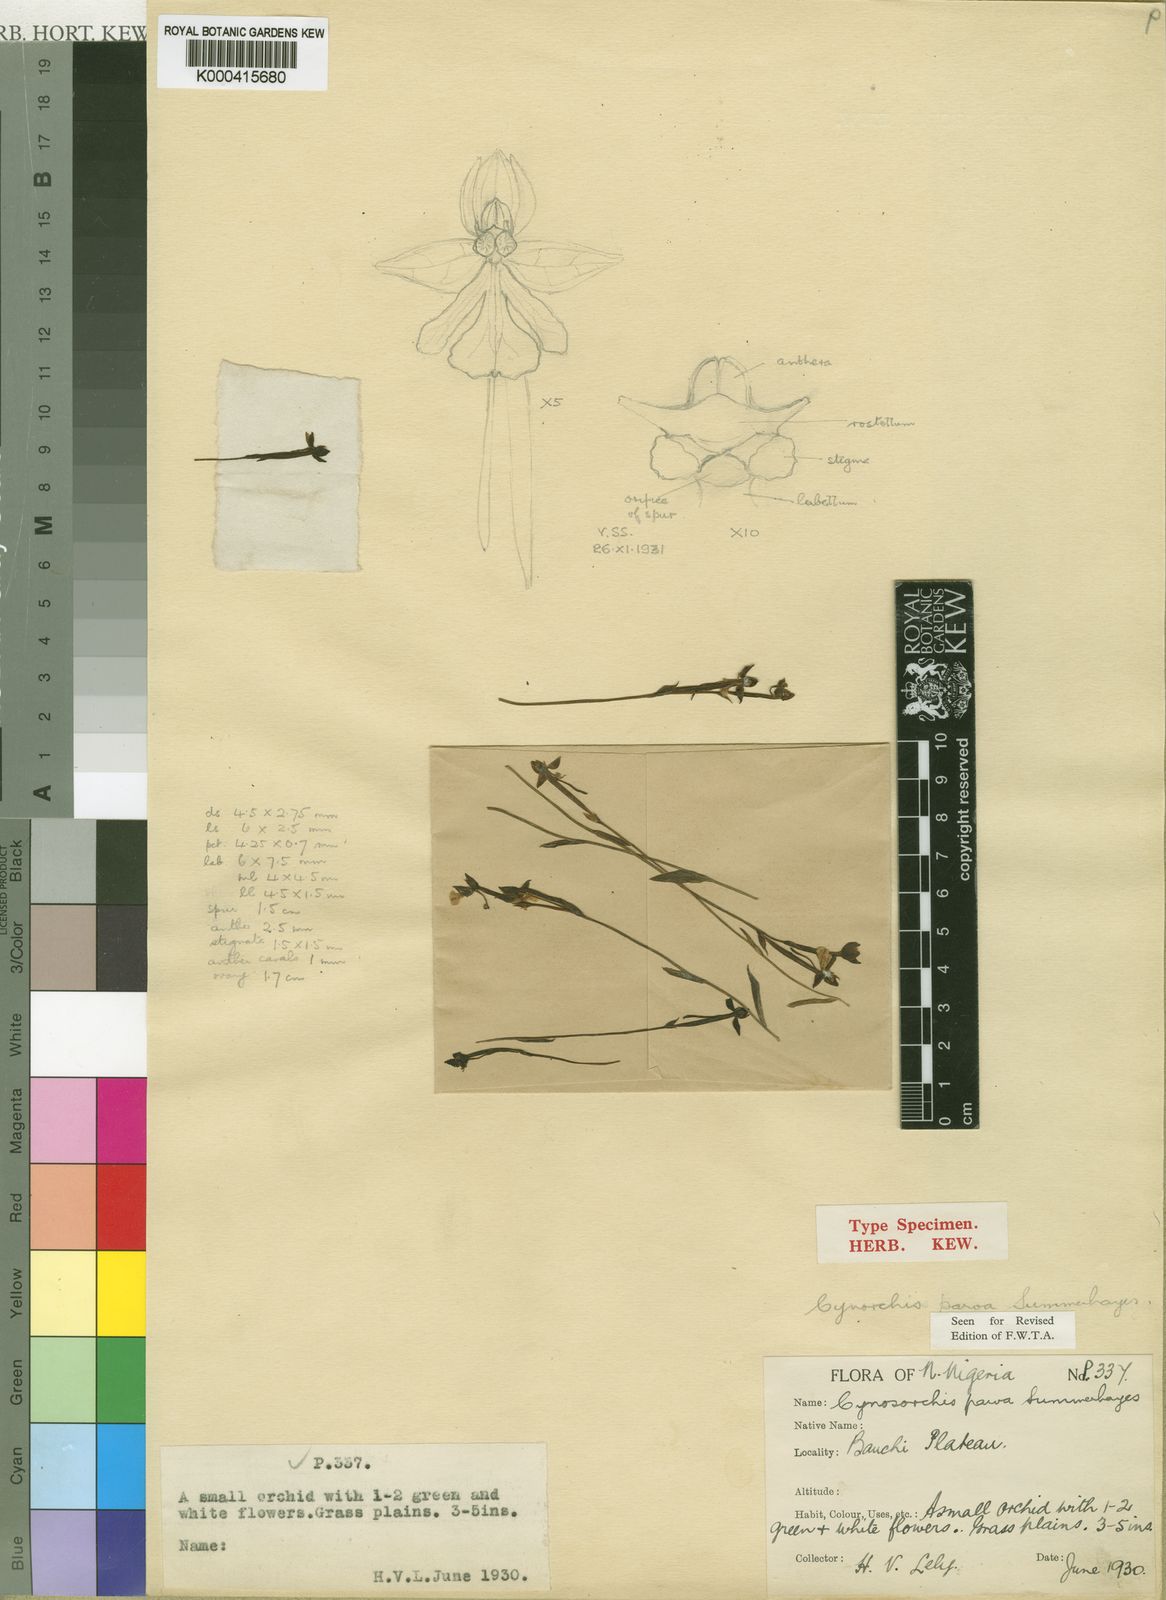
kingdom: Plantae
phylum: Tracheophyta
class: Liliopsida
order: Asparagales
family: Orchidaceae
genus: Habenaria
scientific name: Habenaria parva
